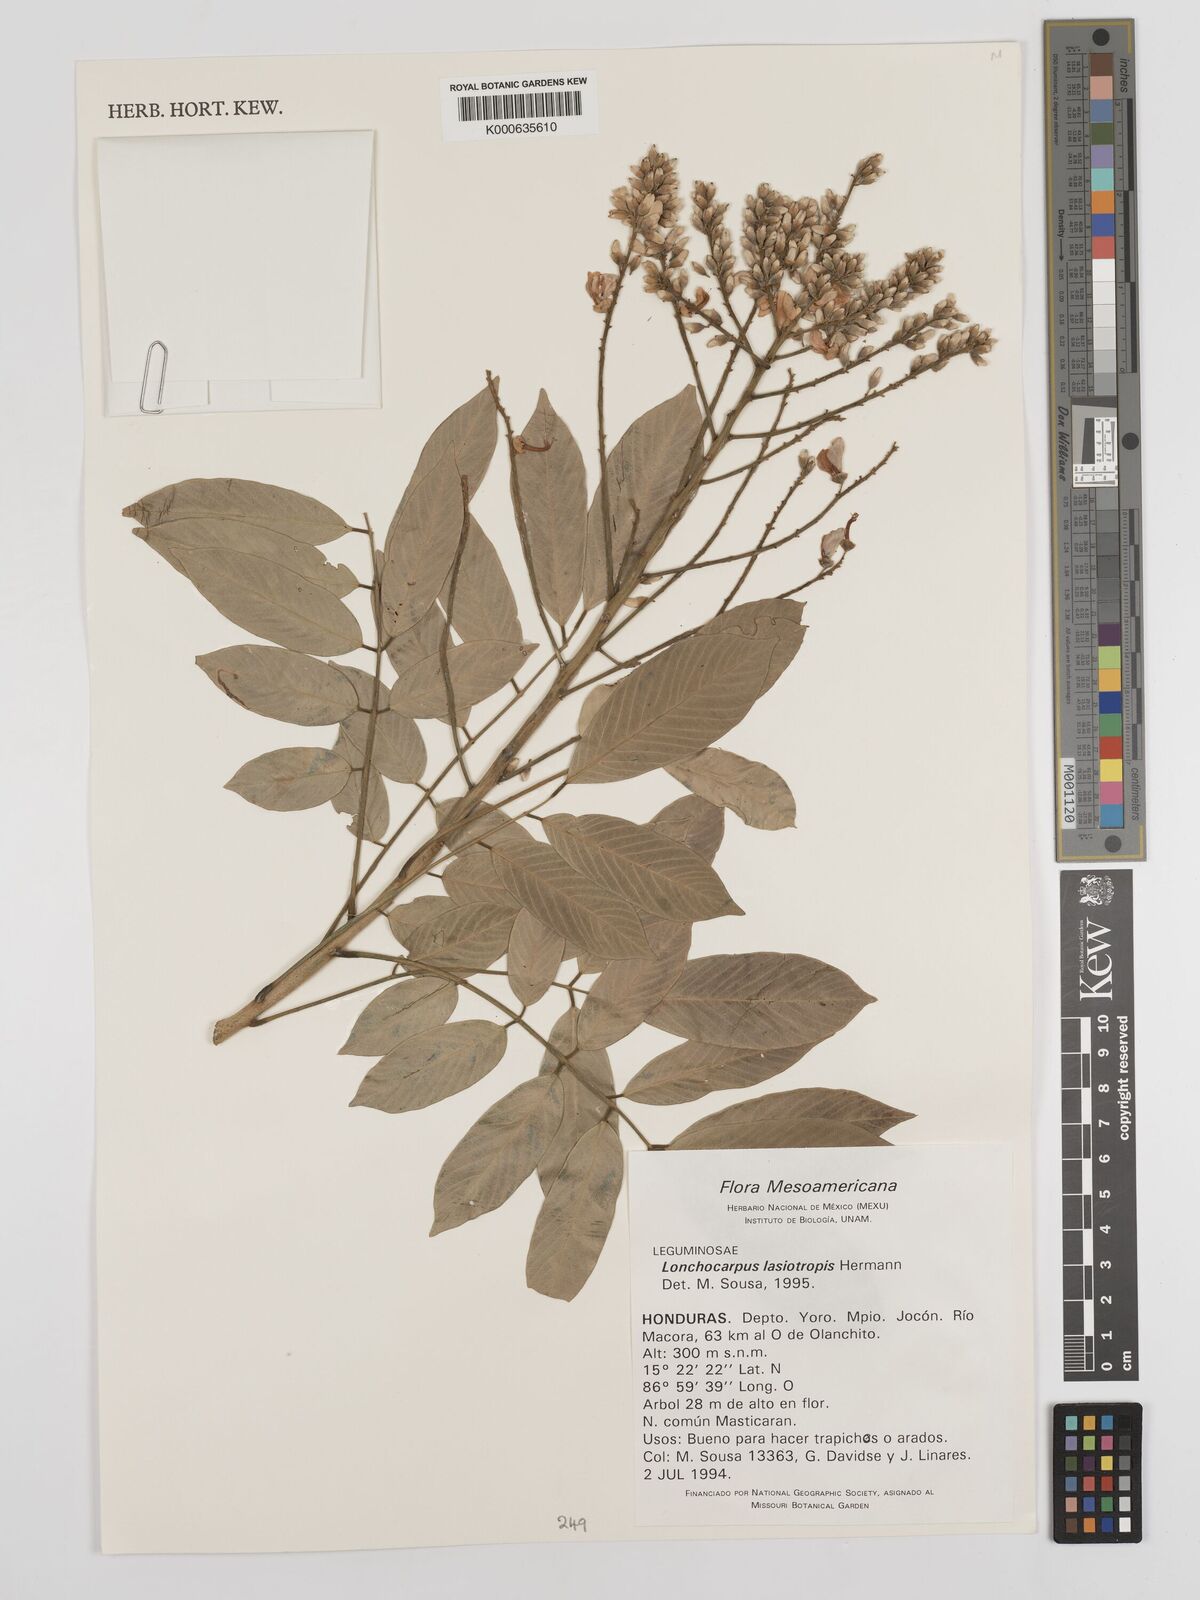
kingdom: Plantae
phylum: Tracheophyta
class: Magnoliopsida
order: Fabales
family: Fabaceae
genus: Lonchocarpus
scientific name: Lonchocarpus lasiotropis
